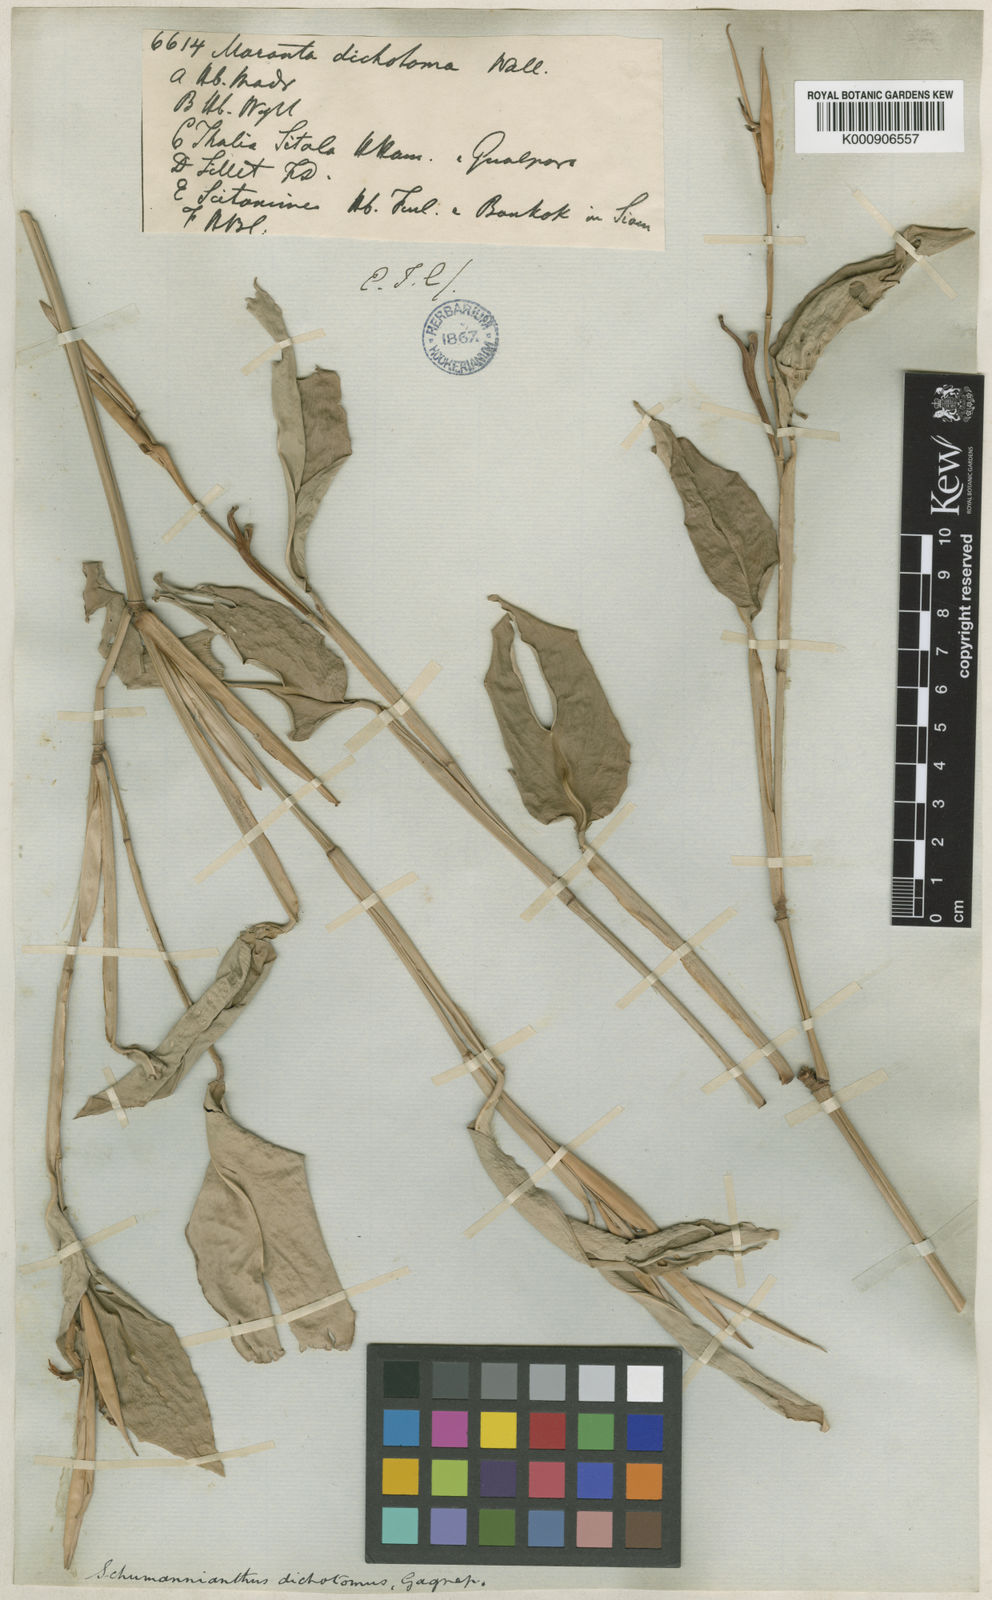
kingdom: Plantae
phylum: Tracheophyta
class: Liliopsida
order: Zingiberales
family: Marantaceae
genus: Schumannianthus
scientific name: Schumannianthus benthamianus
